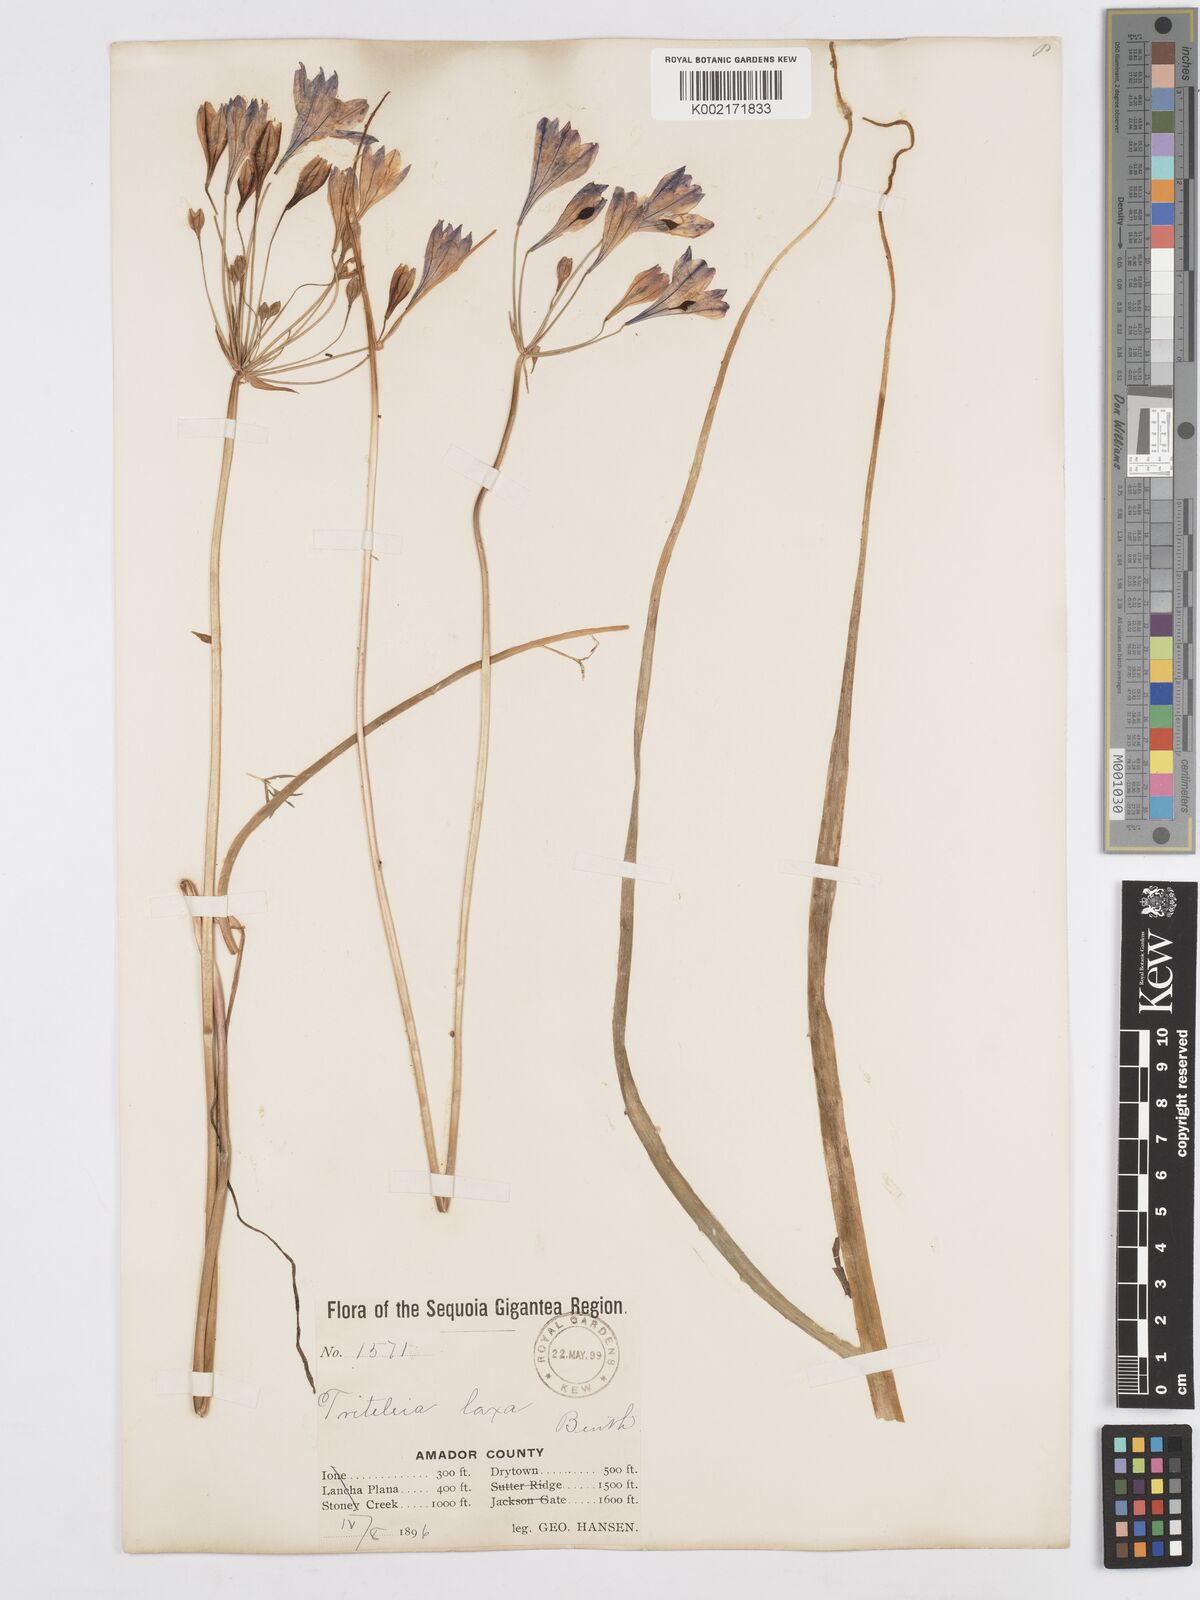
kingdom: Plantae
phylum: Tracheophyta
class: Liliopsida
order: Asparagales
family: Asparagaceae
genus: Triteleia
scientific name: Triteleia bridgesii
